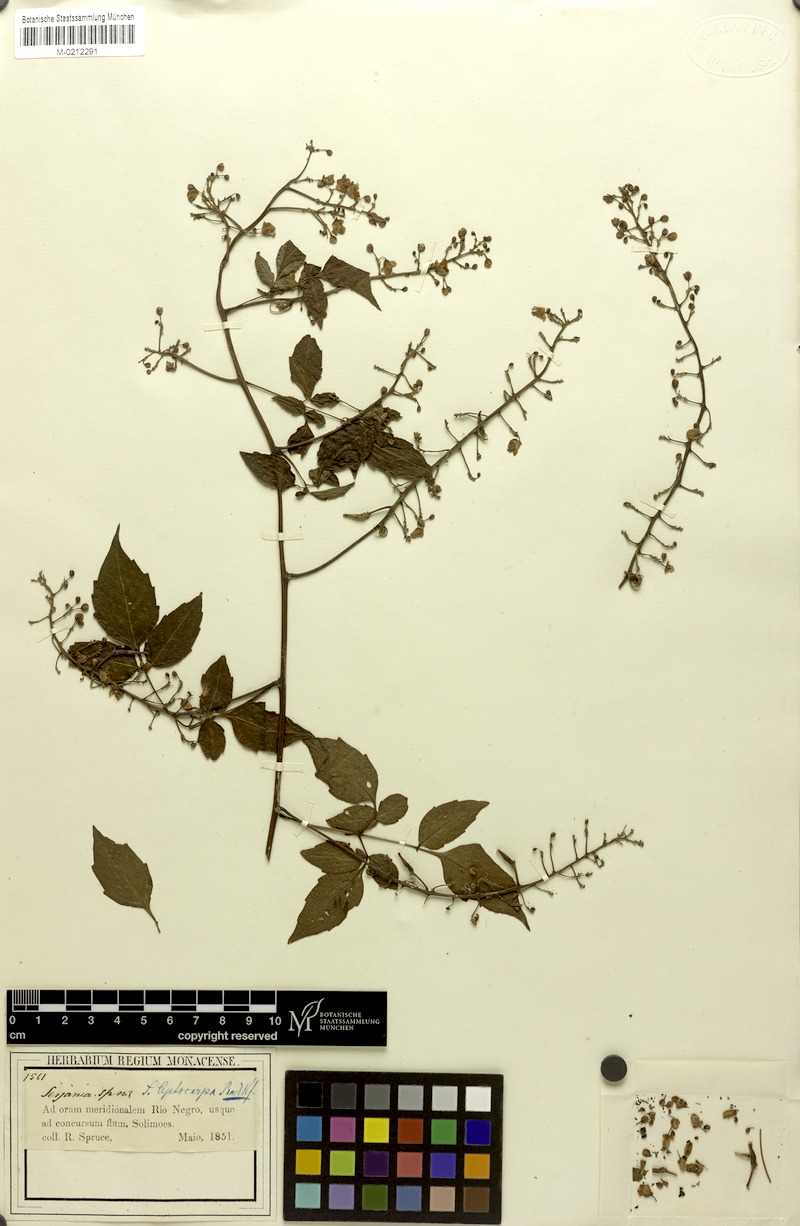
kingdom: Plantae
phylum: Tracheophyta
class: Magnoliopsida
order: Sapindales
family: Sapindaceae
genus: Serjania
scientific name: Serjania leptocarpa
